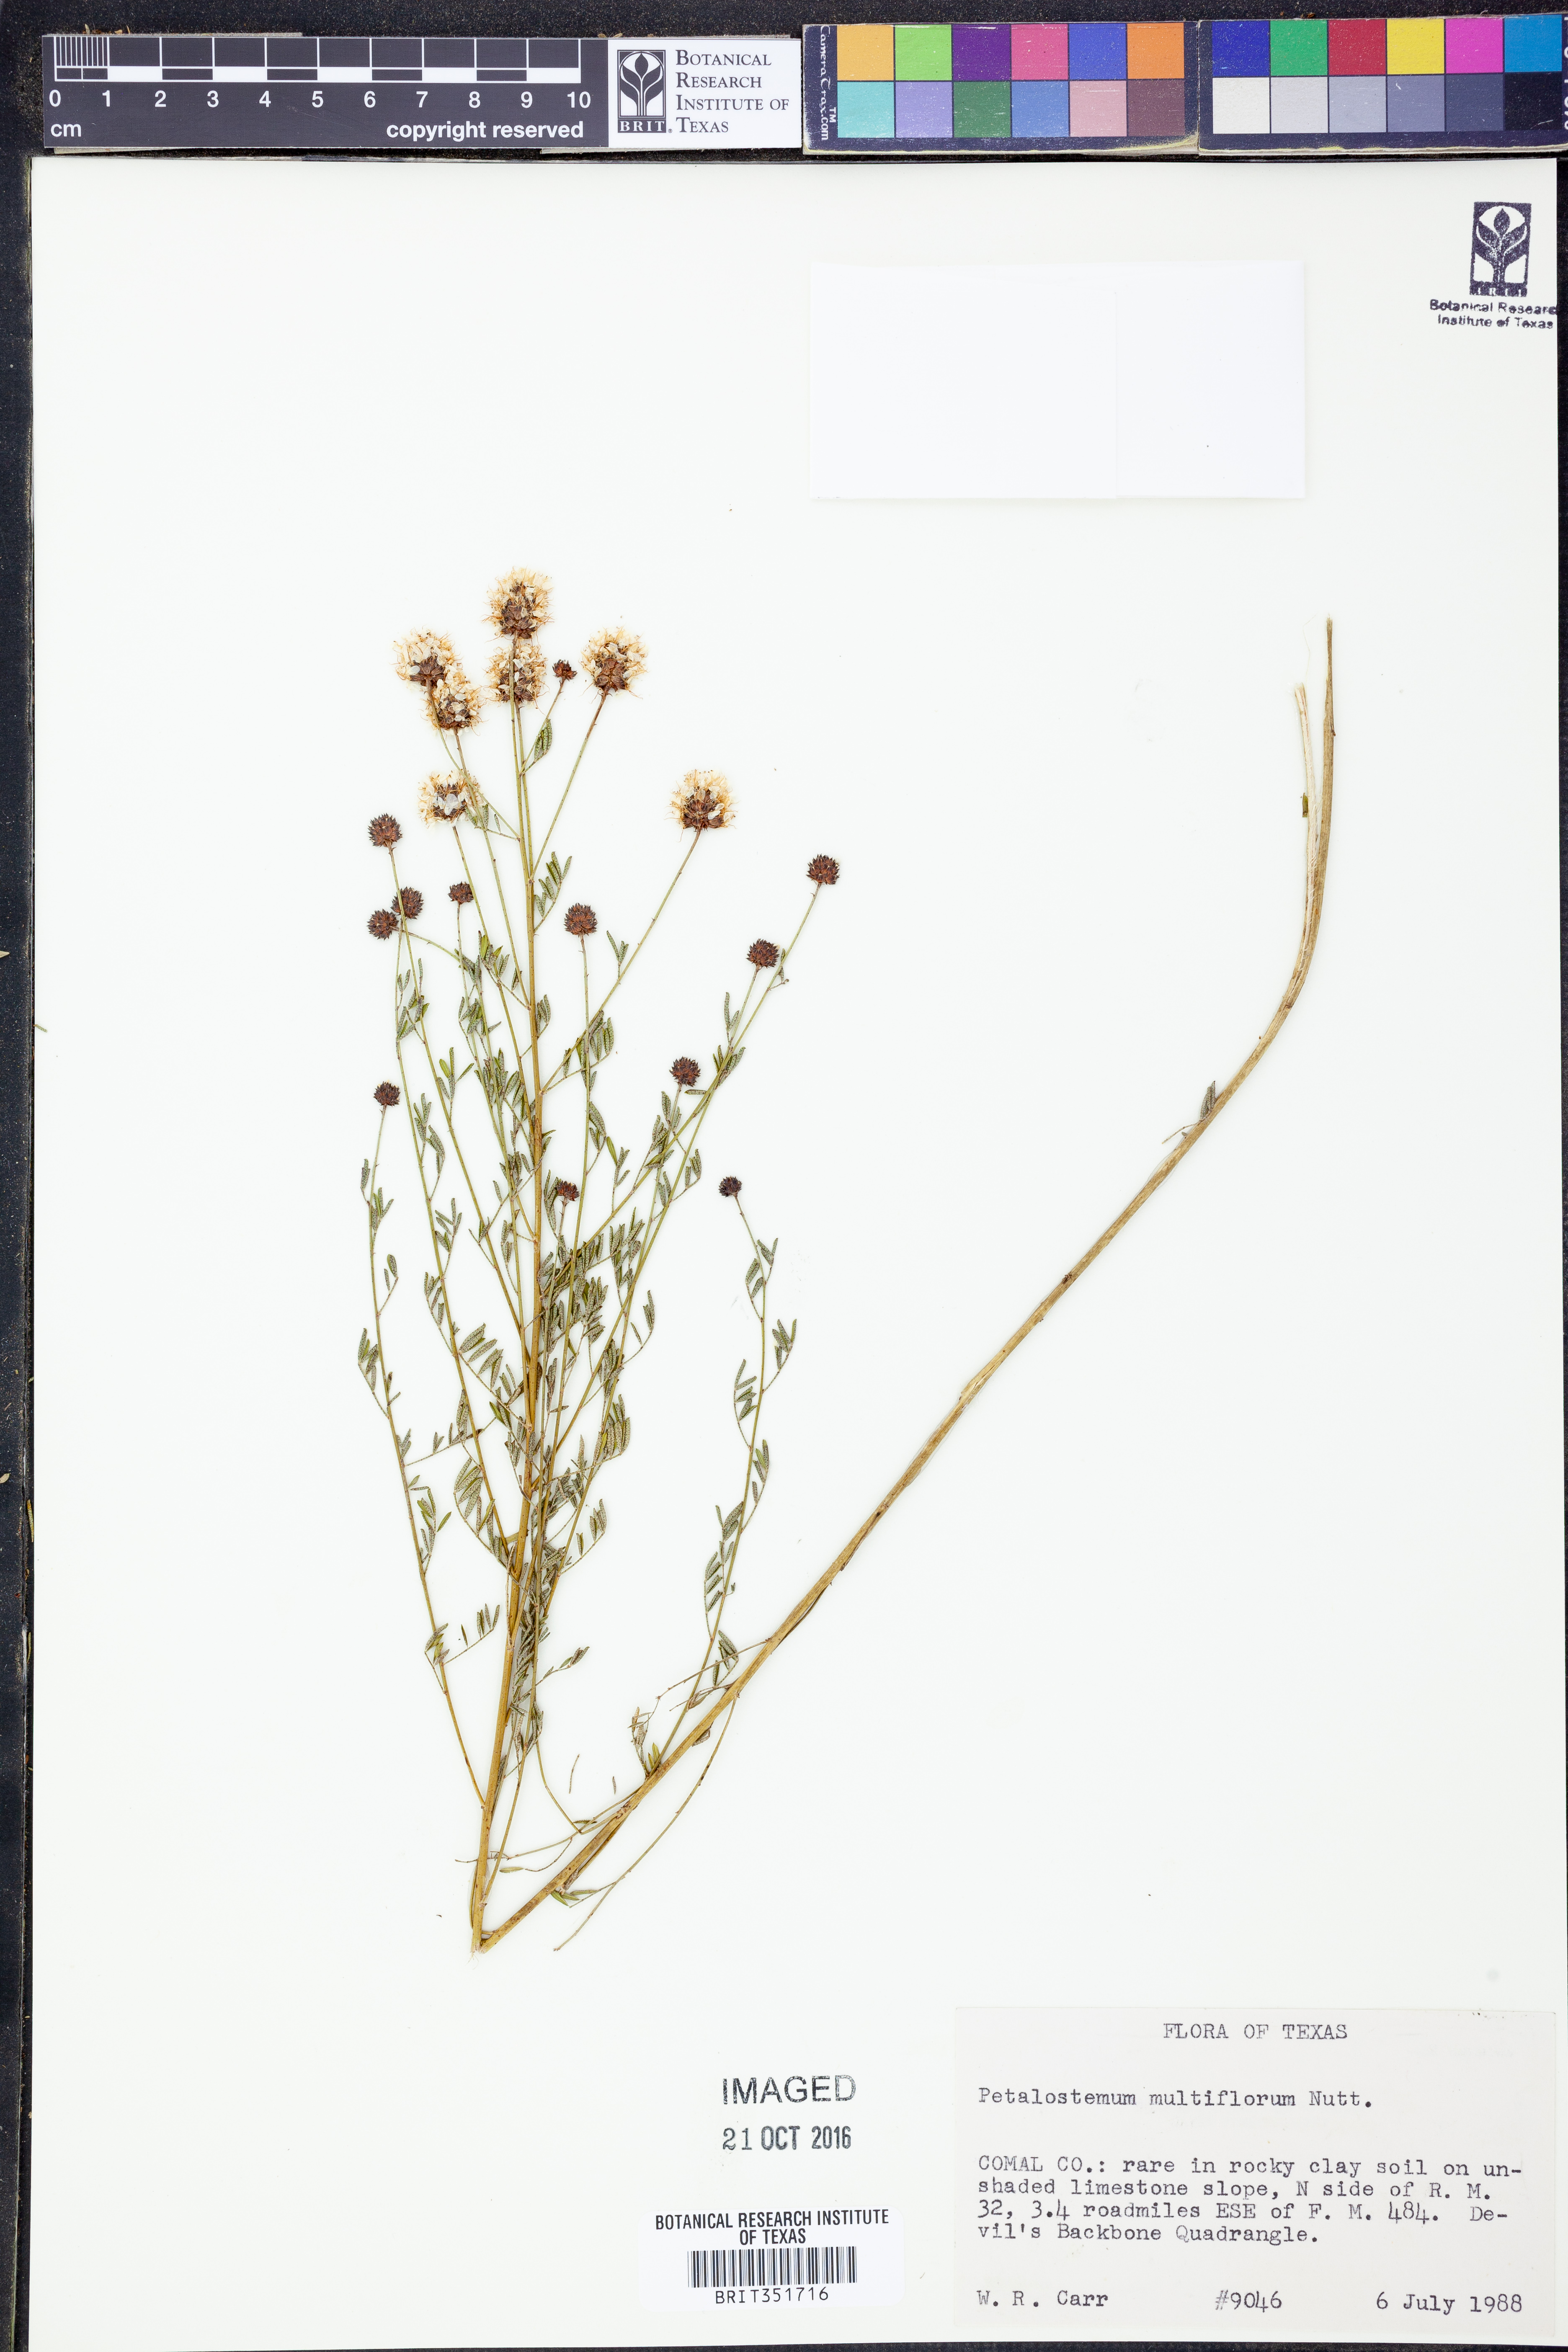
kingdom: Plantae
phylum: Tracheophyta
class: Magnoliopsida
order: Fabales
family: Fabaceae
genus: Dalea
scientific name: Dalea multiflora
